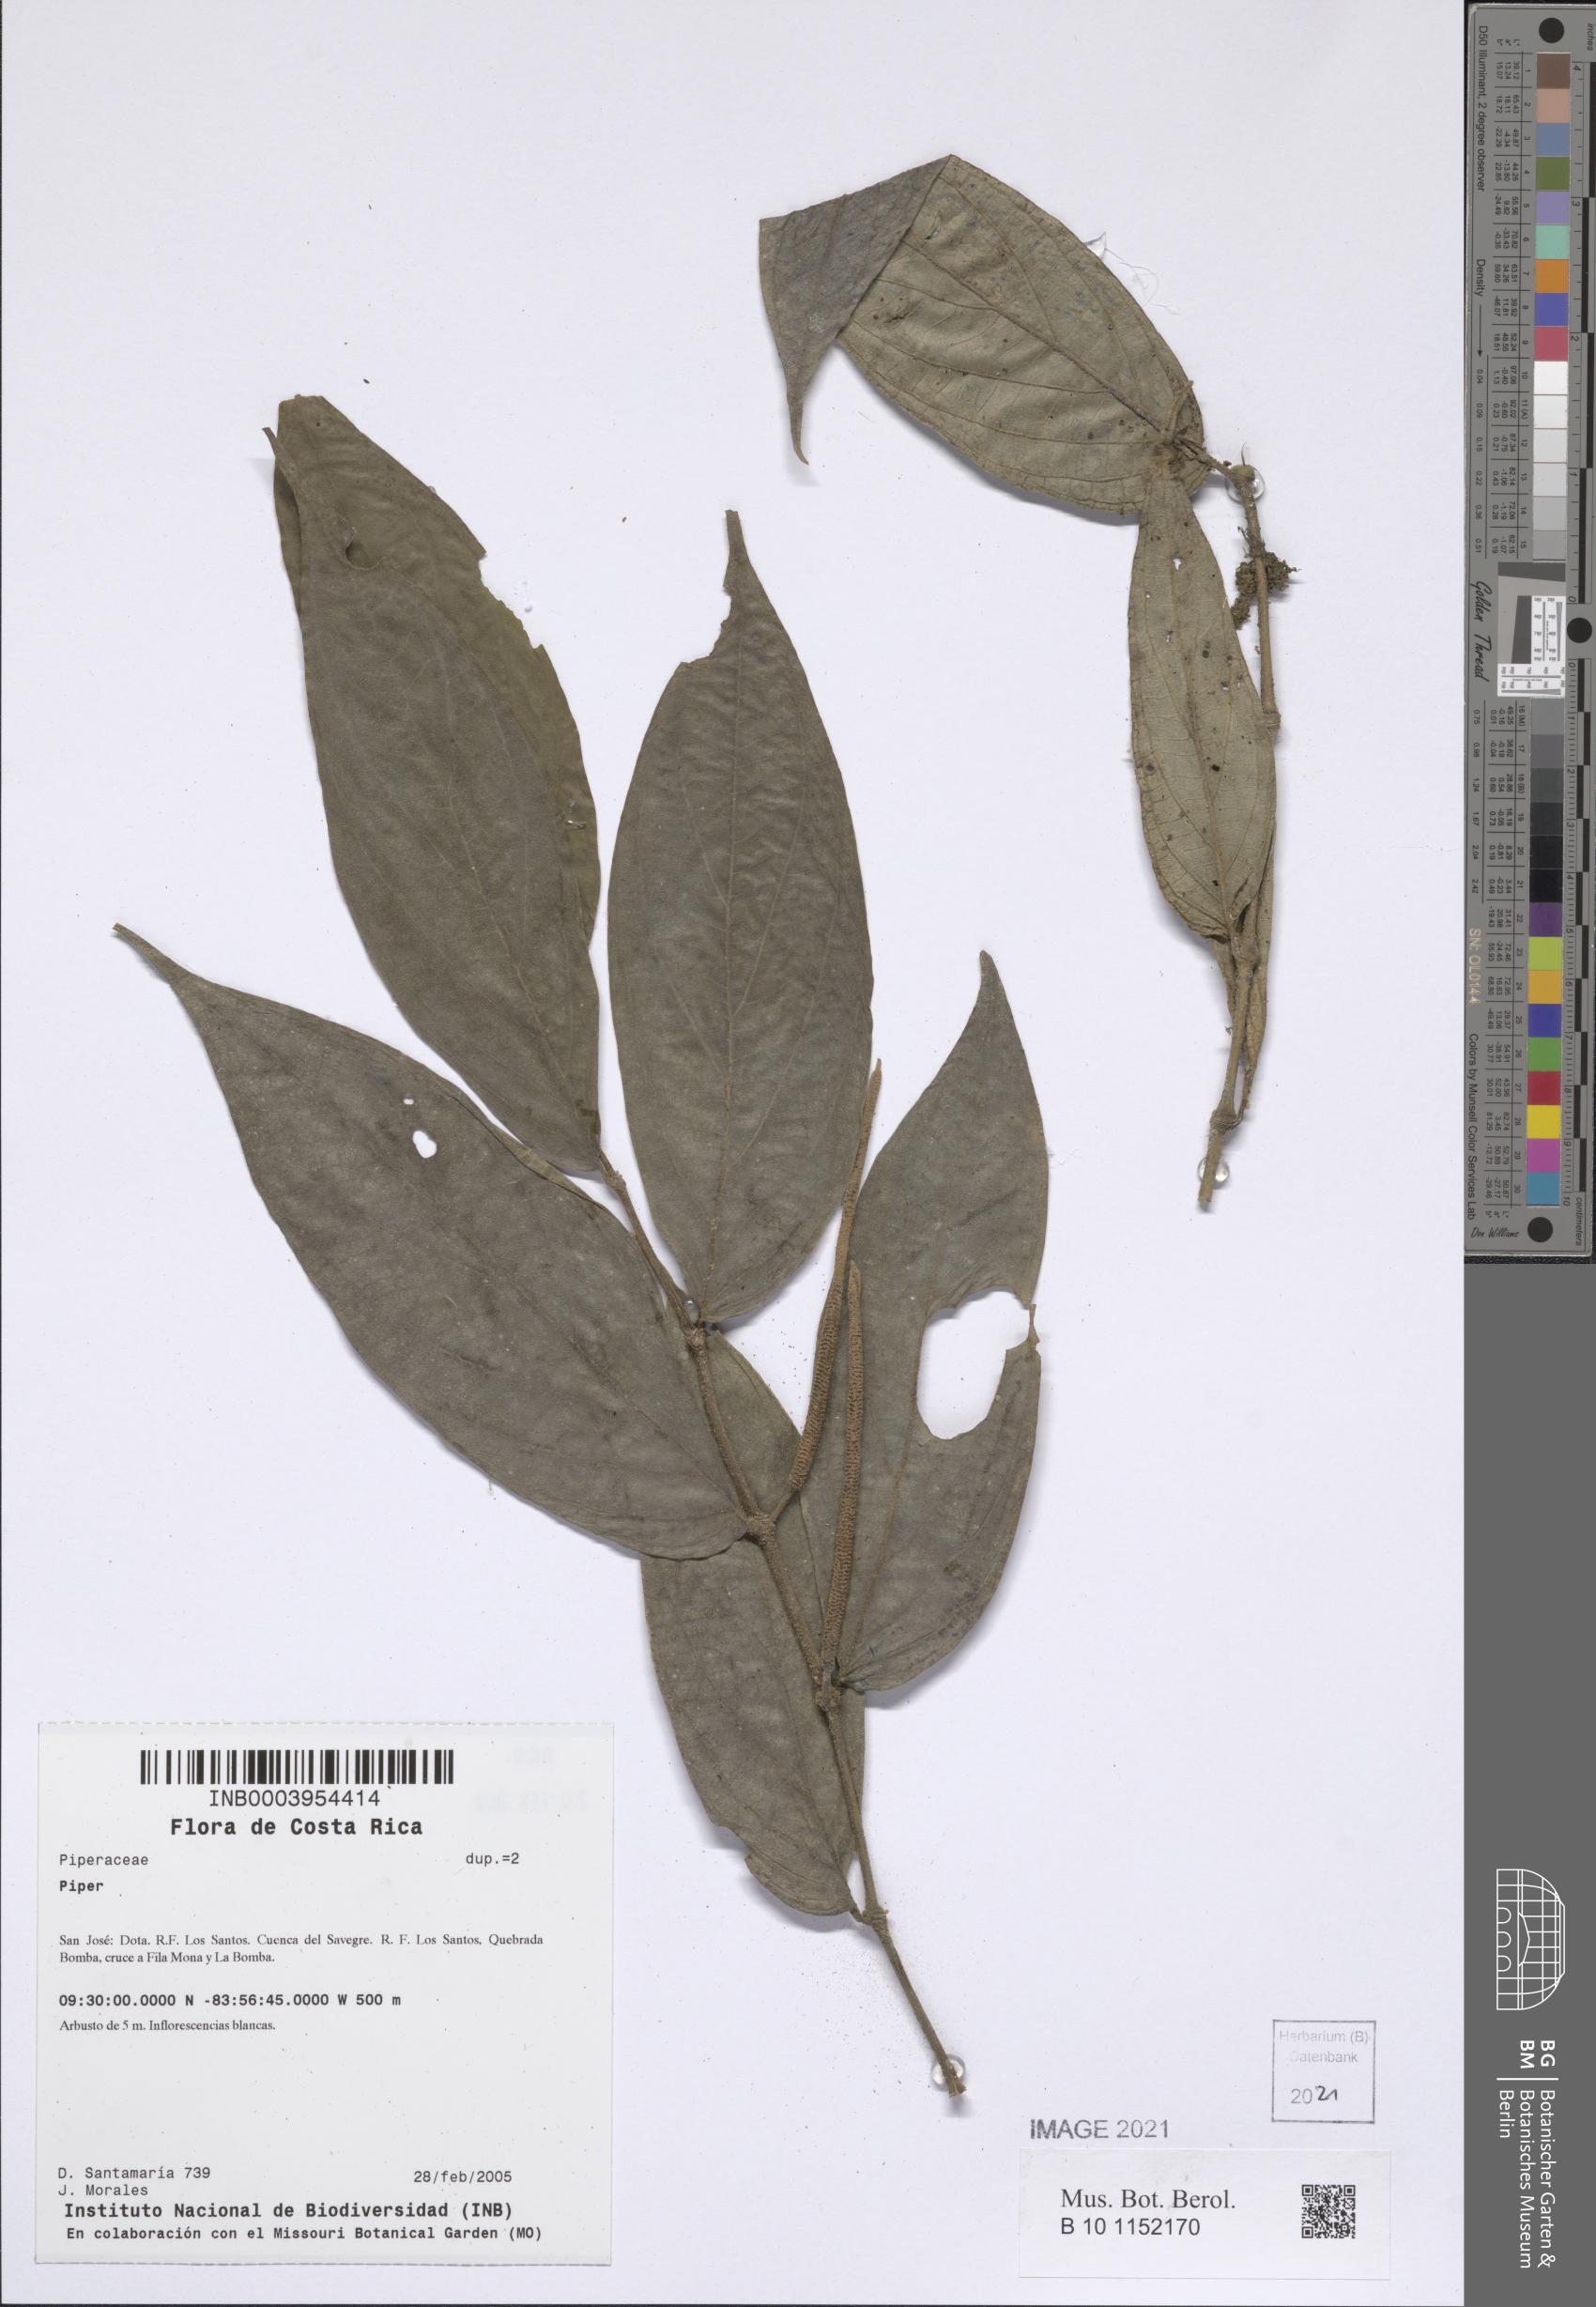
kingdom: Plantae
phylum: Tracheophyta
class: Magnoliopsida
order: Piperales
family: Piperaceae
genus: Piper
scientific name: Piper
